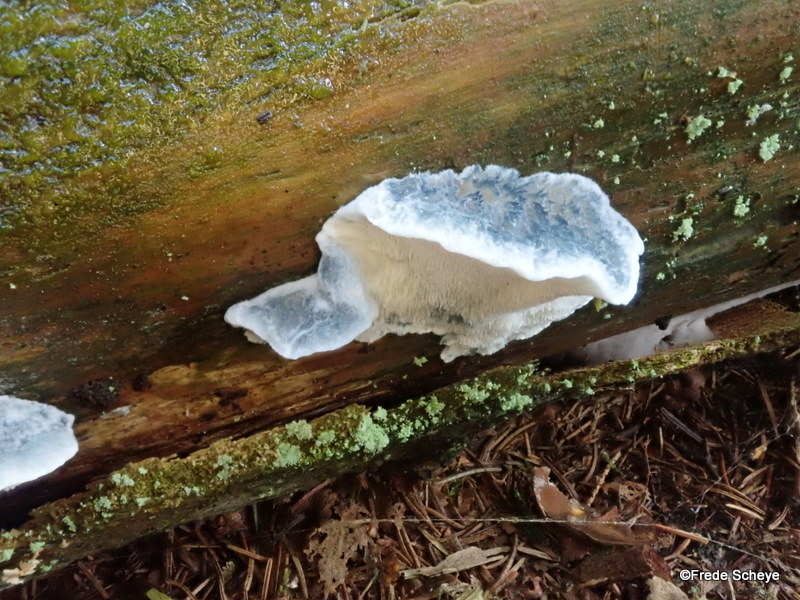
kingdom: Fungi
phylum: Basidiomycota
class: Agaricomycetes
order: Polyporales
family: Polyporaceae
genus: Cyanosporus
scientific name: Cyanosporus caesius
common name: blålig kødporesvamp
